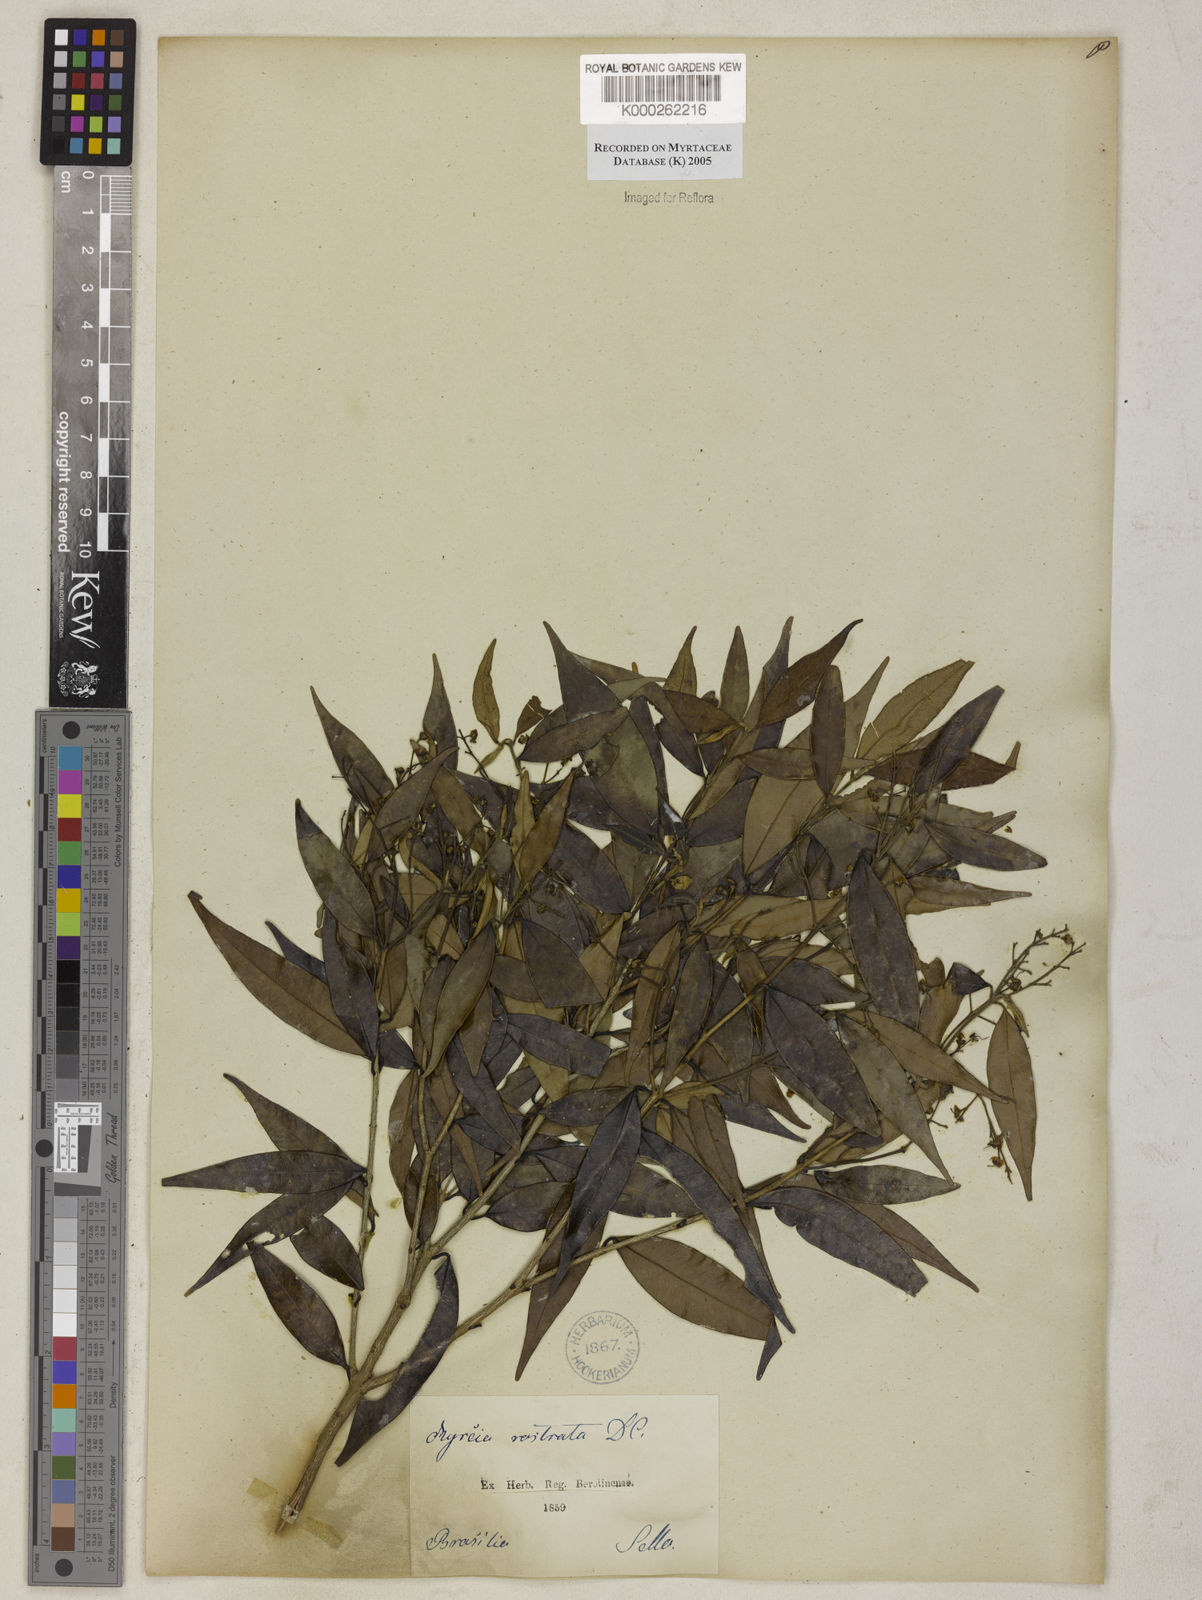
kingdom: Plantae
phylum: Tracheophyta
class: Magnoliopsida
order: Myrtales
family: Myrtaceae
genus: Myrcia
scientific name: Myrcia splendens
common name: Surinam cherry
